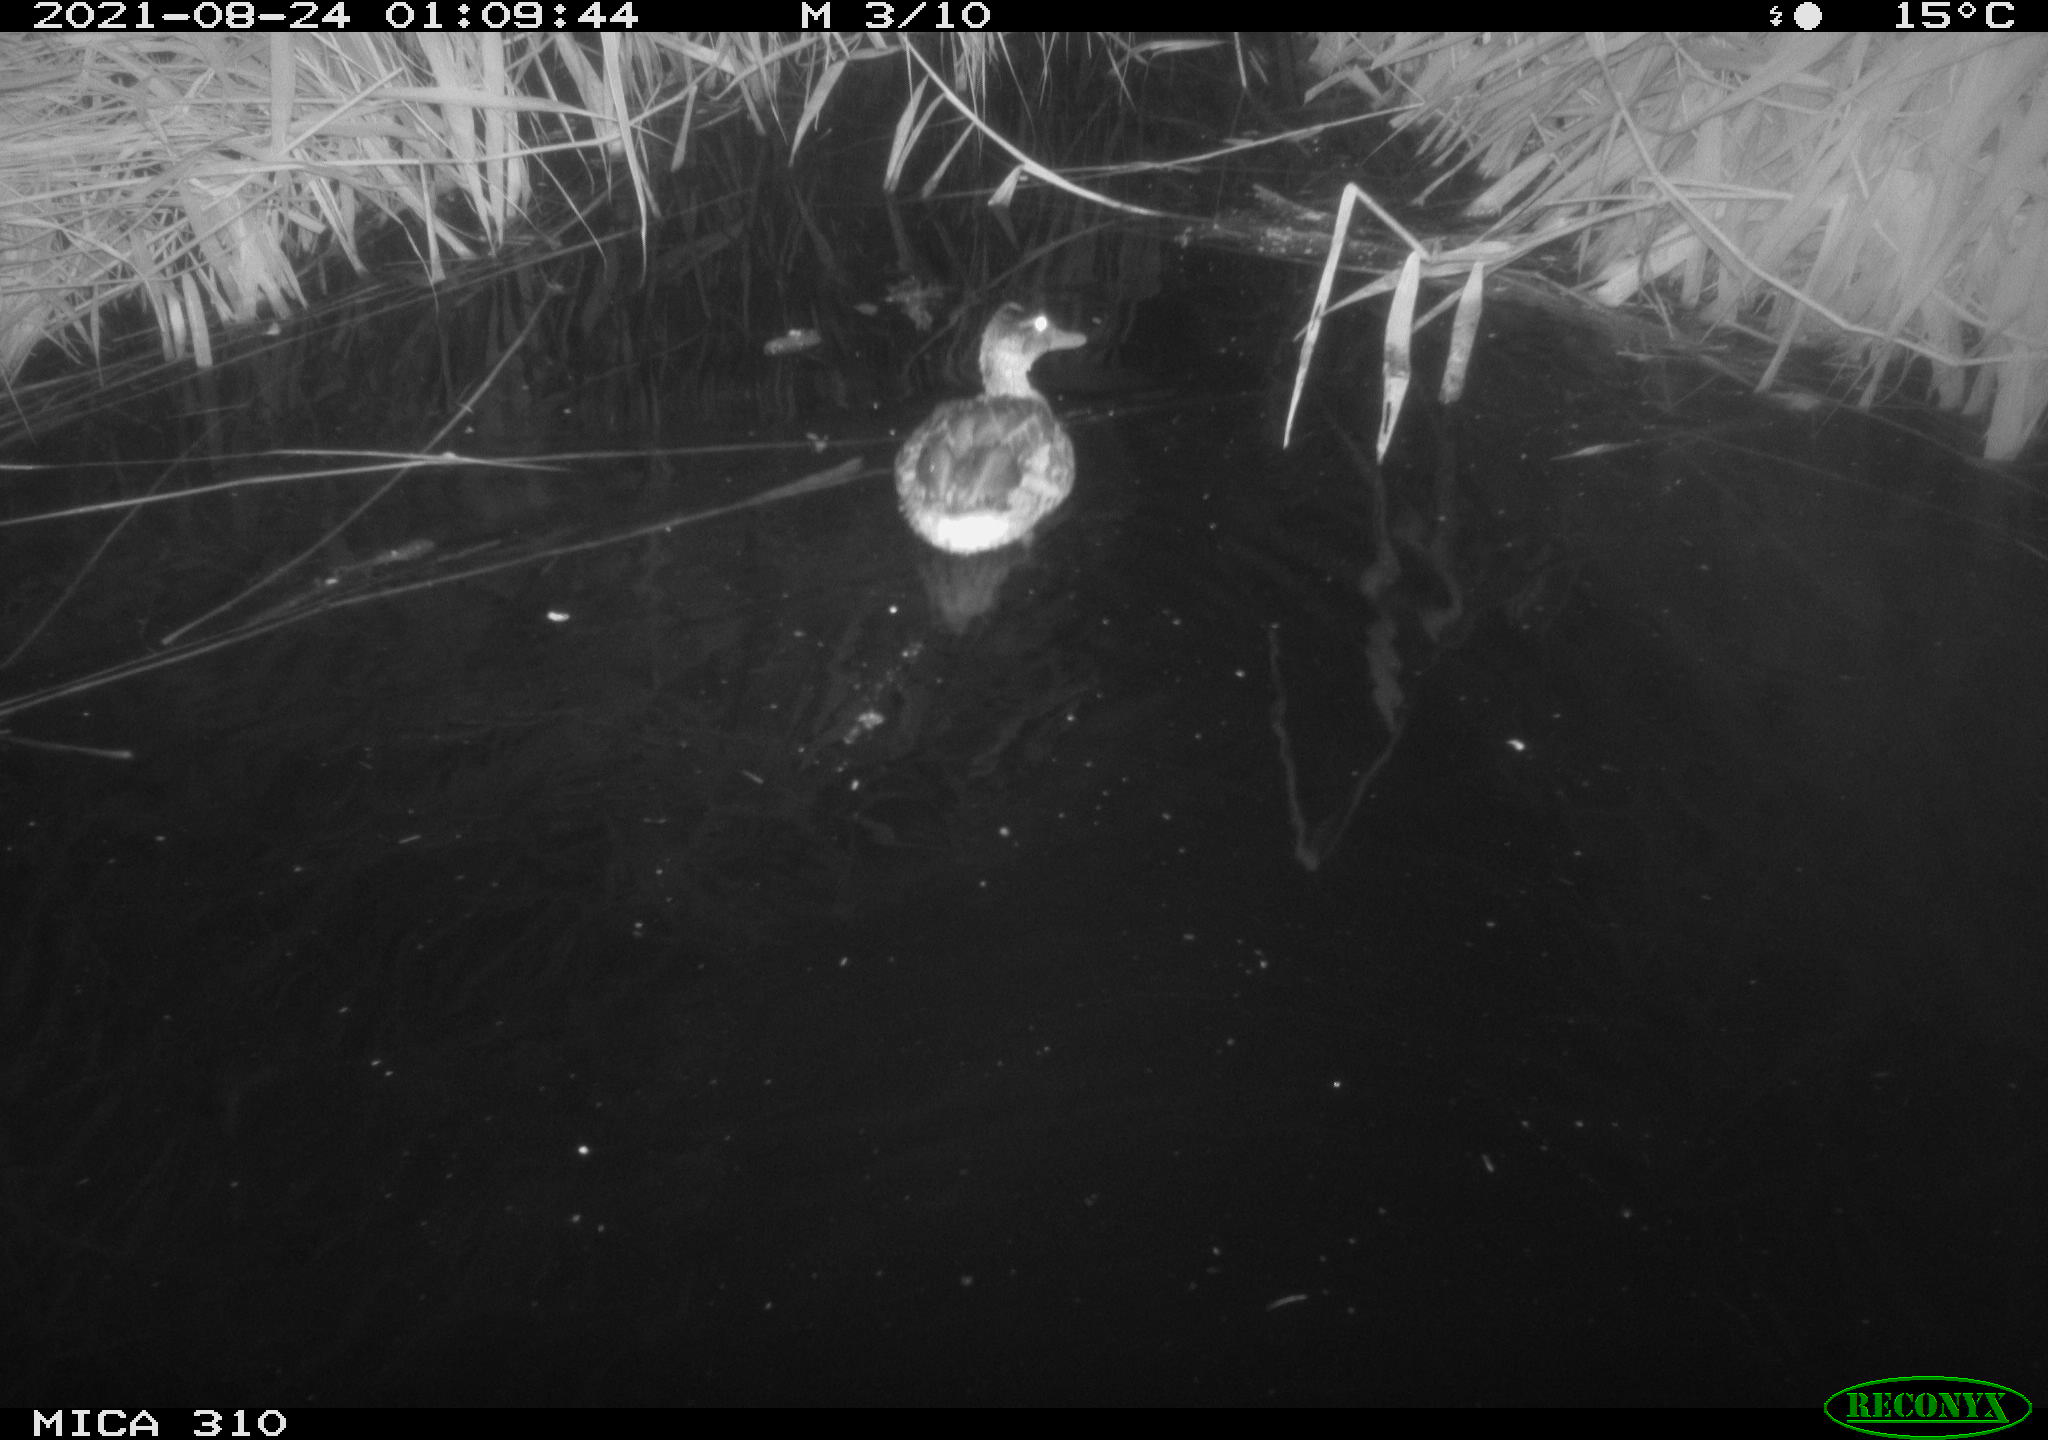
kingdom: Animalia
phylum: Chordata
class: Aves
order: Anseriformes
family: Anatidae
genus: Anas
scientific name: Anas platyrhynchos
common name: Mallard
